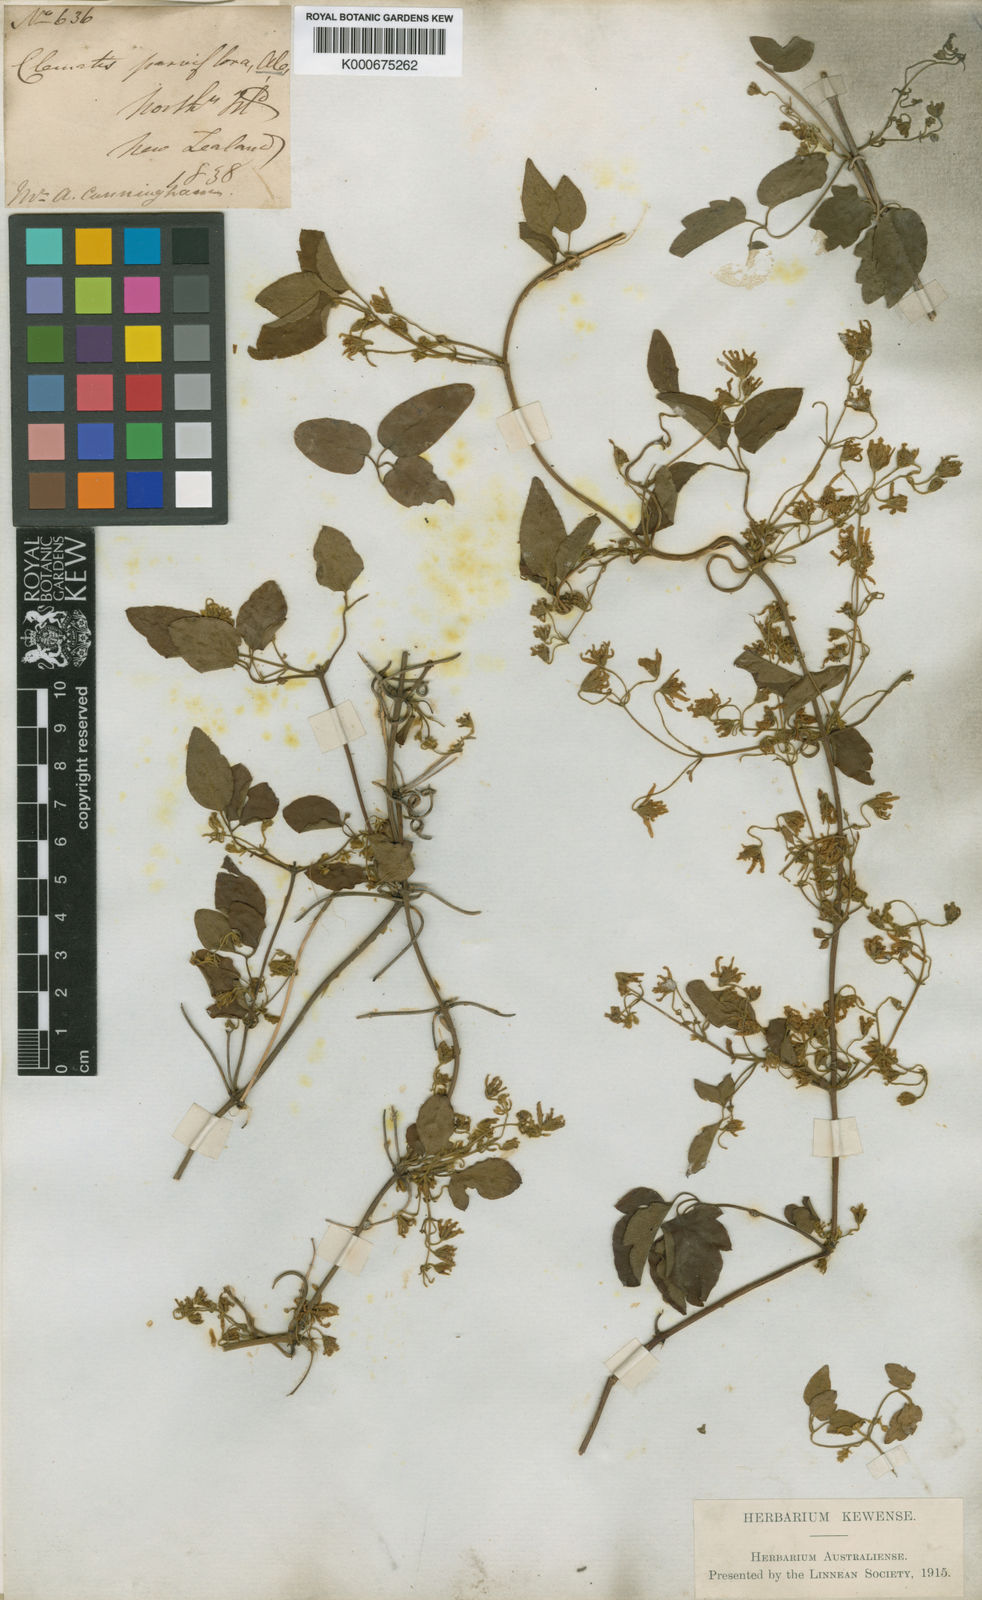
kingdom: Plantae
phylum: Tracheophyta
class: Magnoliopsida
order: Ranunculales
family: Ranunculaceae
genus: Clematis
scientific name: Clematis viticella
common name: Purple clematis
